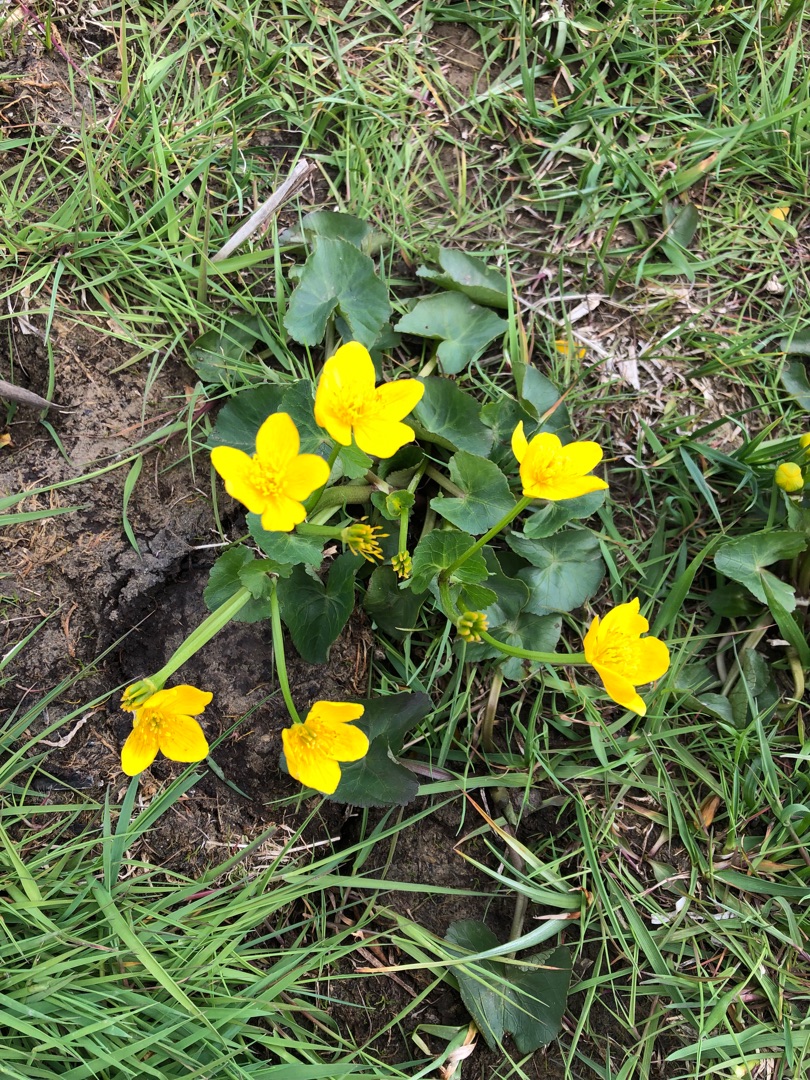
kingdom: Plantae
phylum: Tracheophyta
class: Magnoliopsida
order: Ranunculales
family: Ranunculaceae
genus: Caltha
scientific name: Caltha palustris
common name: Eng-kabbeleje
